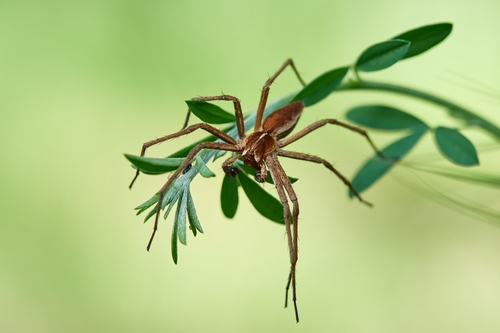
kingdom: Animalia
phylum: Arthropoda
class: Arachnida
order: Araneae
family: Pisauridae
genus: Pisaura
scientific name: Pisaura mirabilis
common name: Tent spider
